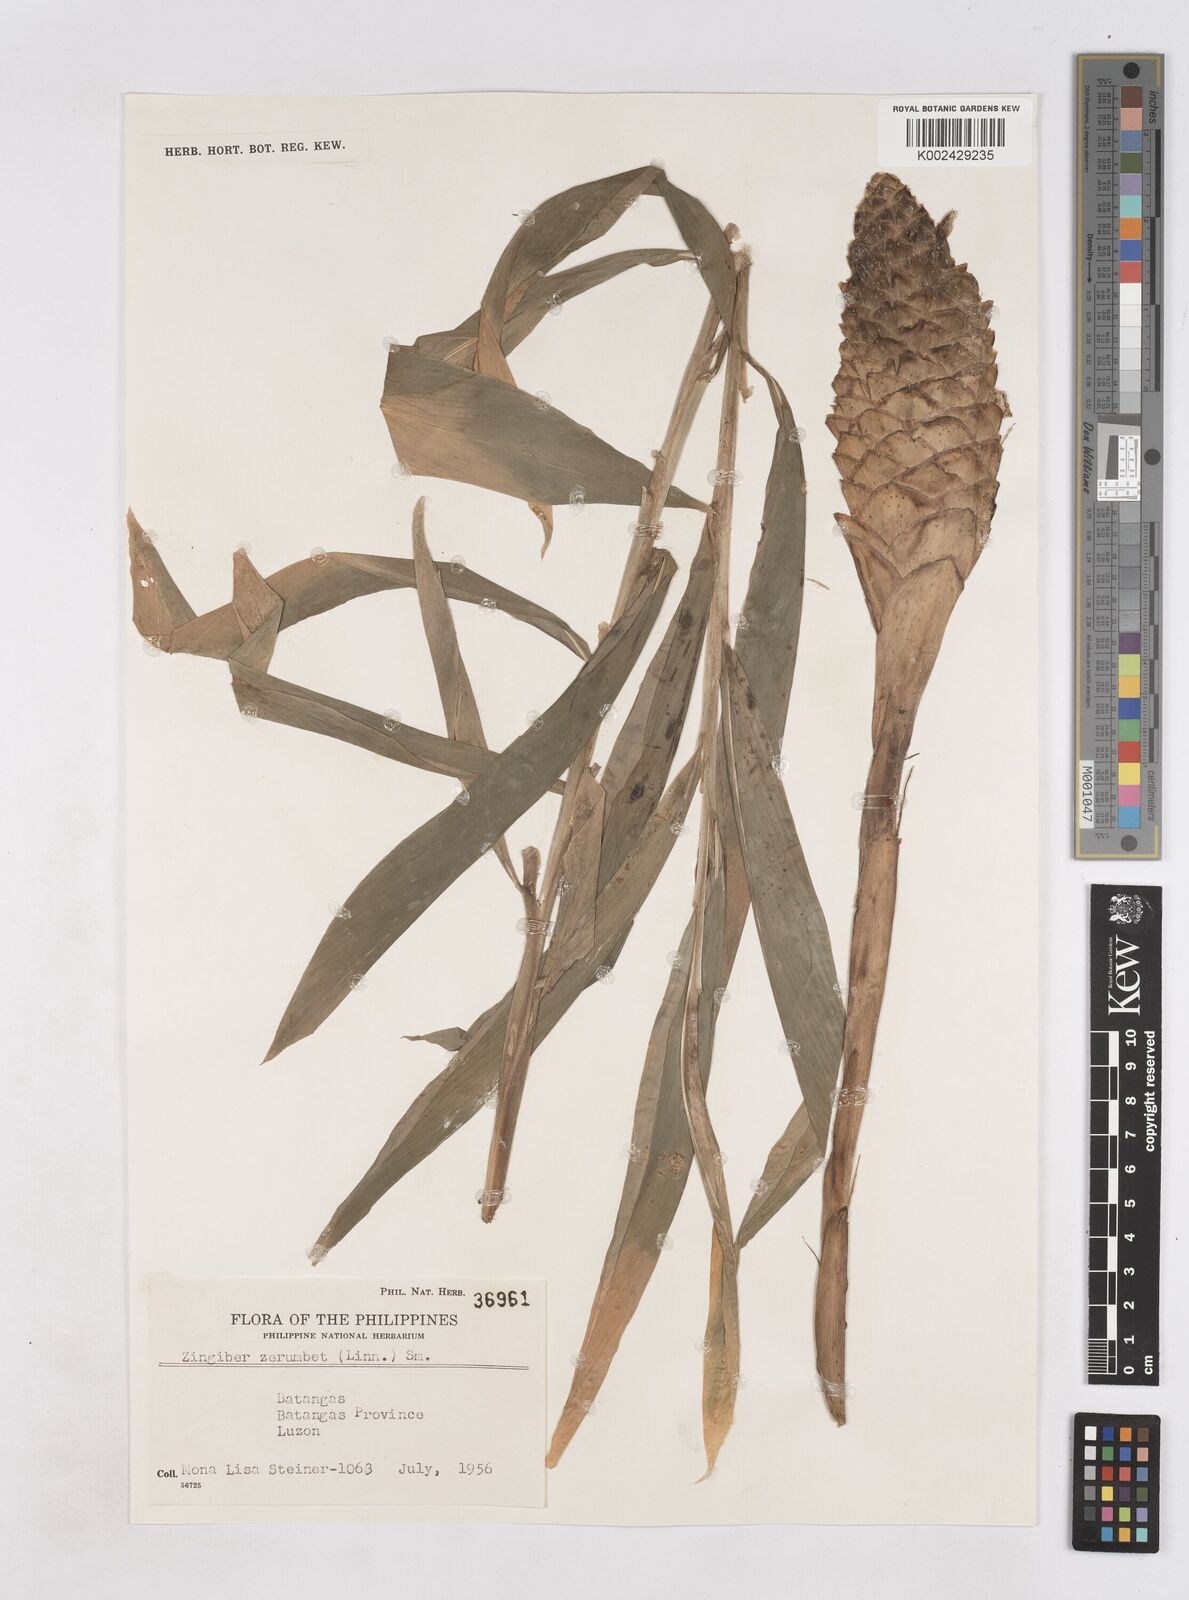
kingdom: Plantae
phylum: Tracheophyta
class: Liliopsida
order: Zingiberales
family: Zingiberaceae
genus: Zingiber
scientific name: Zingiber zerumbet
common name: Bitter ginger
